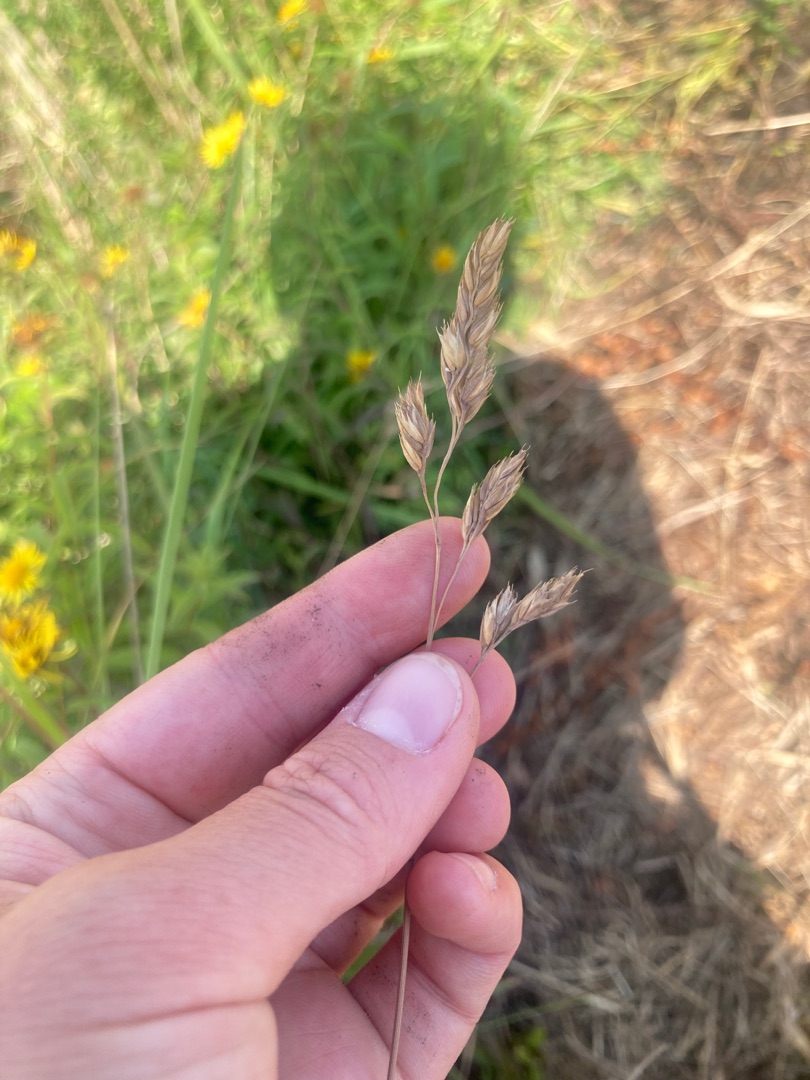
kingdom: Plantae
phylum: Tracheophyta
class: Liliopsida
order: Poales
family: Poaceae
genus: Dactylis
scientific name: Dactylis glomerata
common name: Almindelig hundegræs
